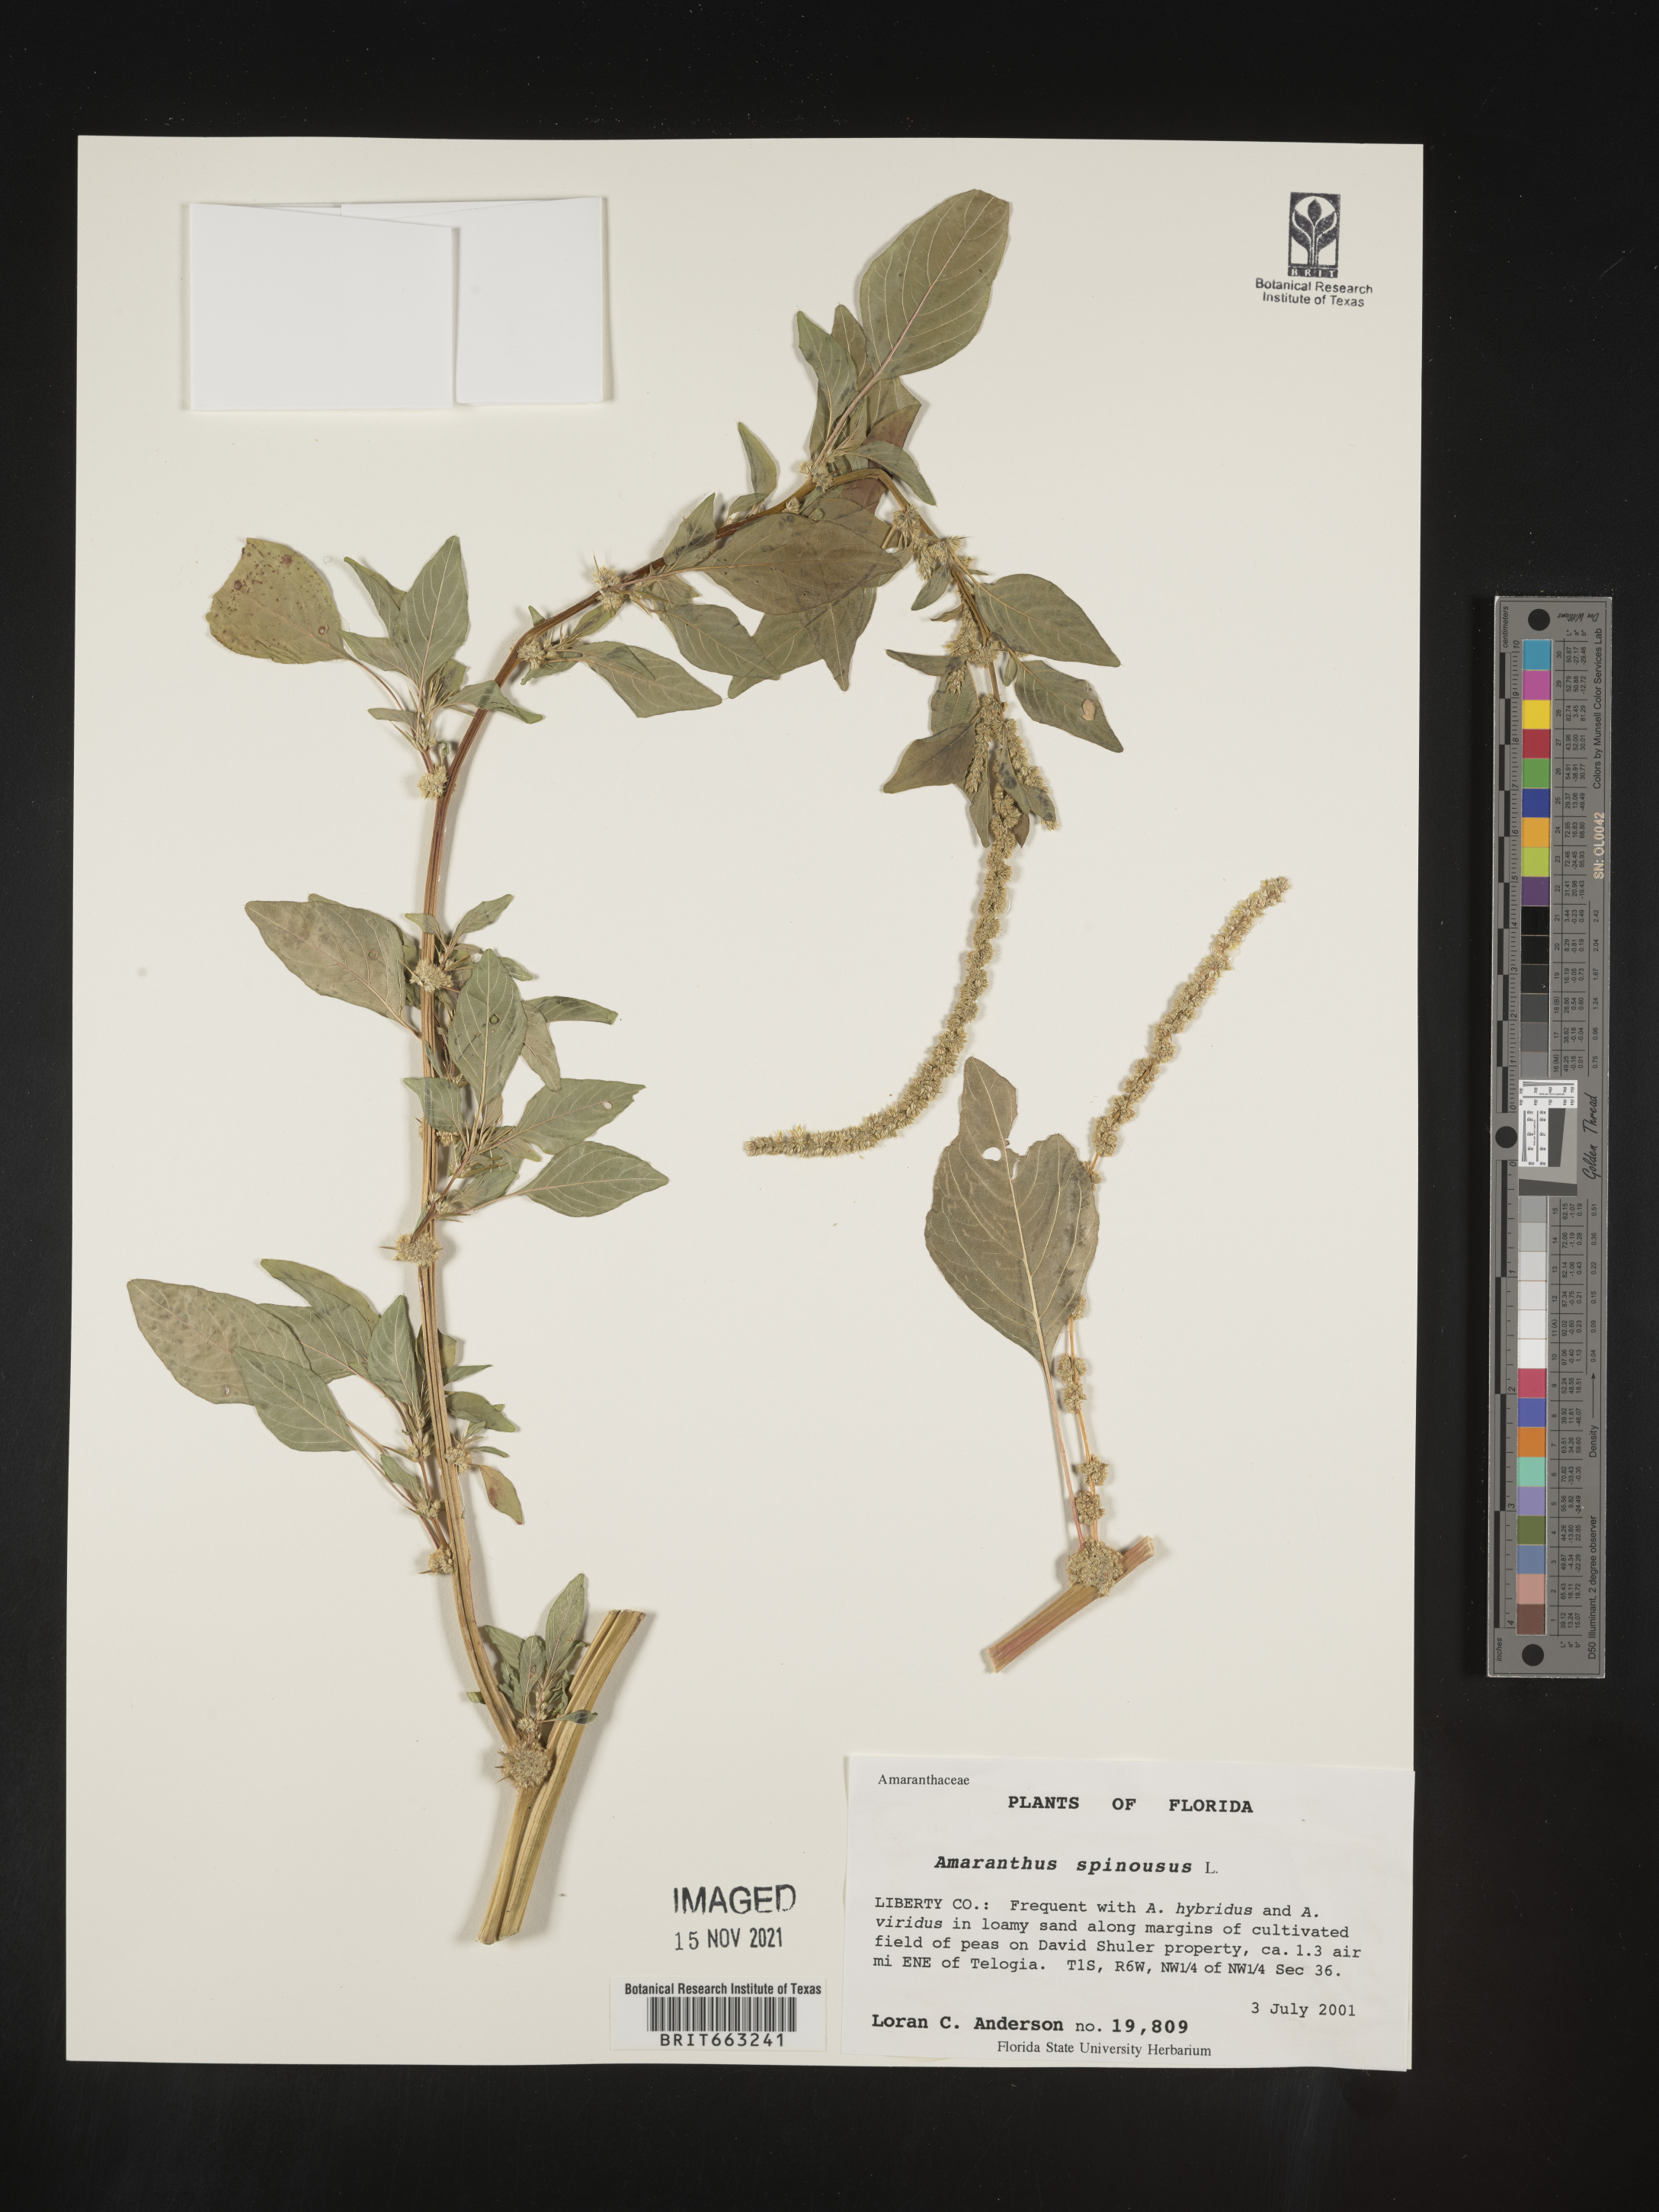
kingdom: Plantae
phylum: Tracheophyta
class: Magnoliopsida
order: Caryophyllales
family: Amaranthaceae
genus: Amaranthus
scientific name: Amaranthus spinosus
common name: Spiny amaranth
